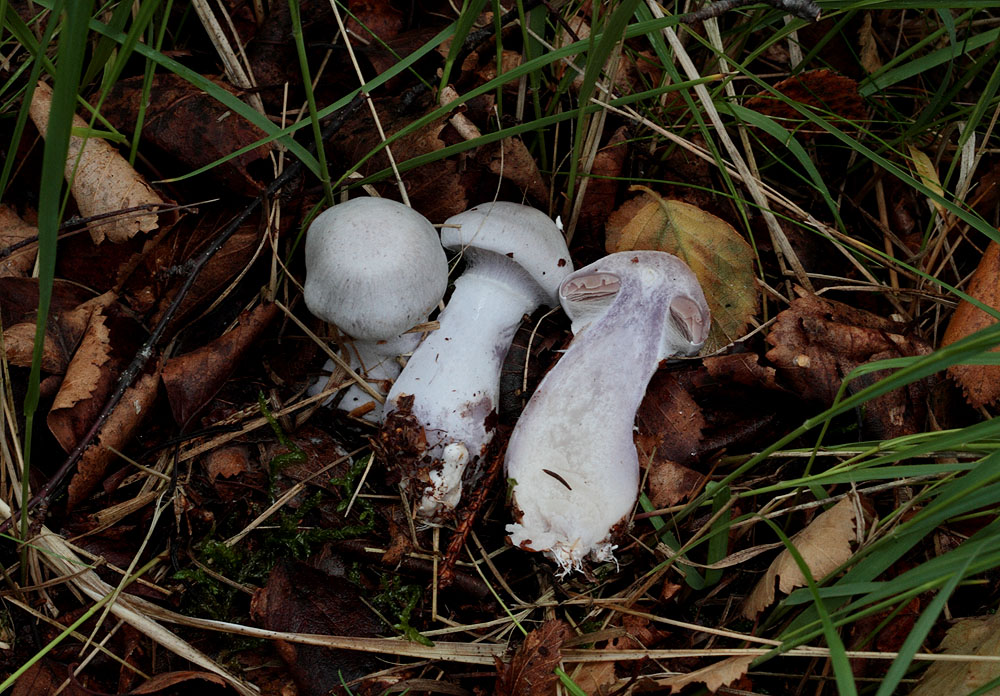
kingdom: Fungi
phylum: Basidiomycota
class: Agaricomycetes
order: Agaricales
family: Cortinariaceae
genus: Cortinarius
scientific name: Cortinarius alboviolaceus
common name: lysviolet slørhat
